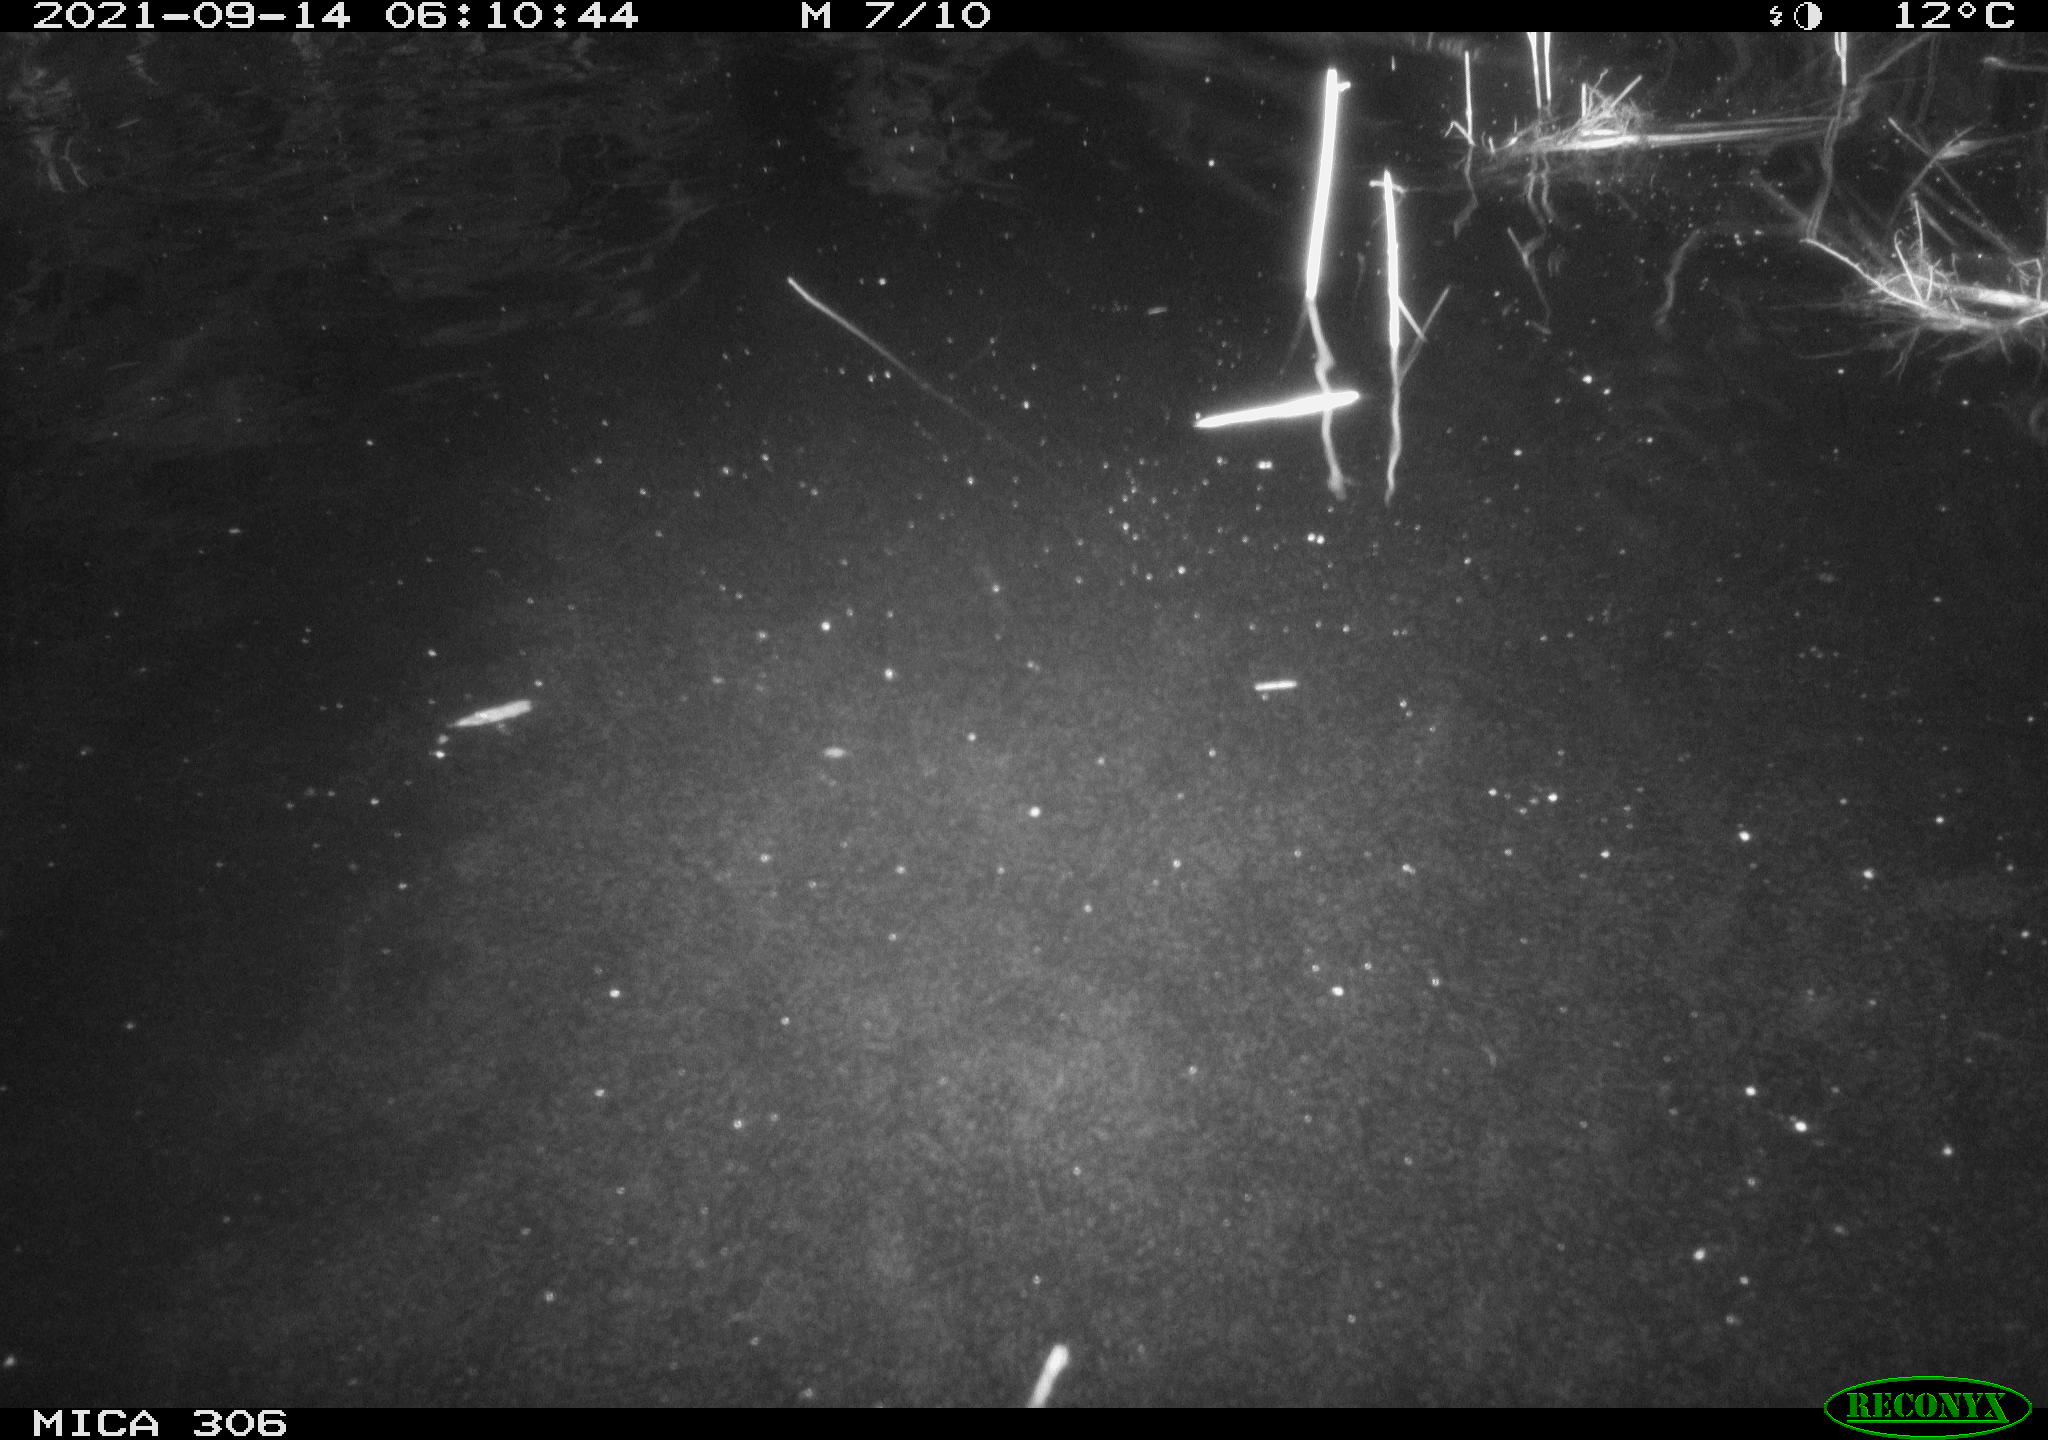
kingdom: Animalia
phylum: Chordata
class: Mammalia
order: Rodentia
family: Cricetidae
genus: Ondatra
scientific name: Ondatra zibethicus
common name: Muskrat
